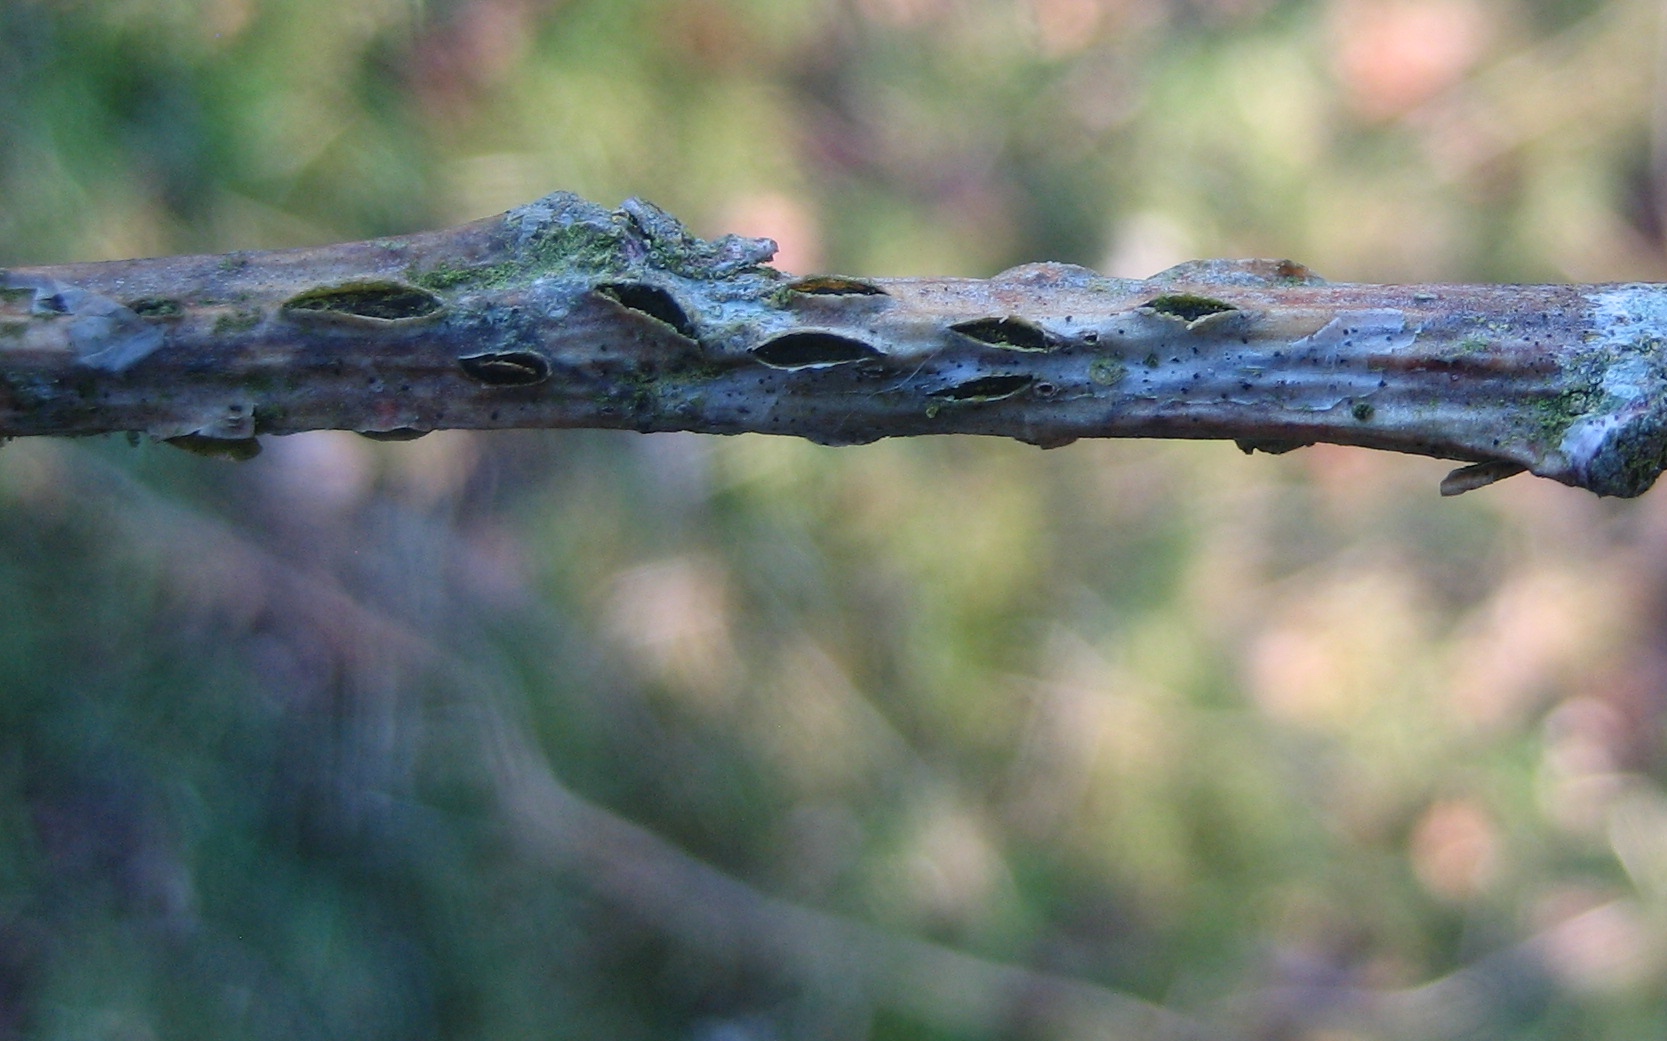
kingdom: Fungi
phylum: Ascomycota
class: Leotiomycetes
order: Rhytismatales
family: Rhytismataceae
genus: Colpoma
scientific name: Colpoma quercinum
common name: ege-sprækkeskive
